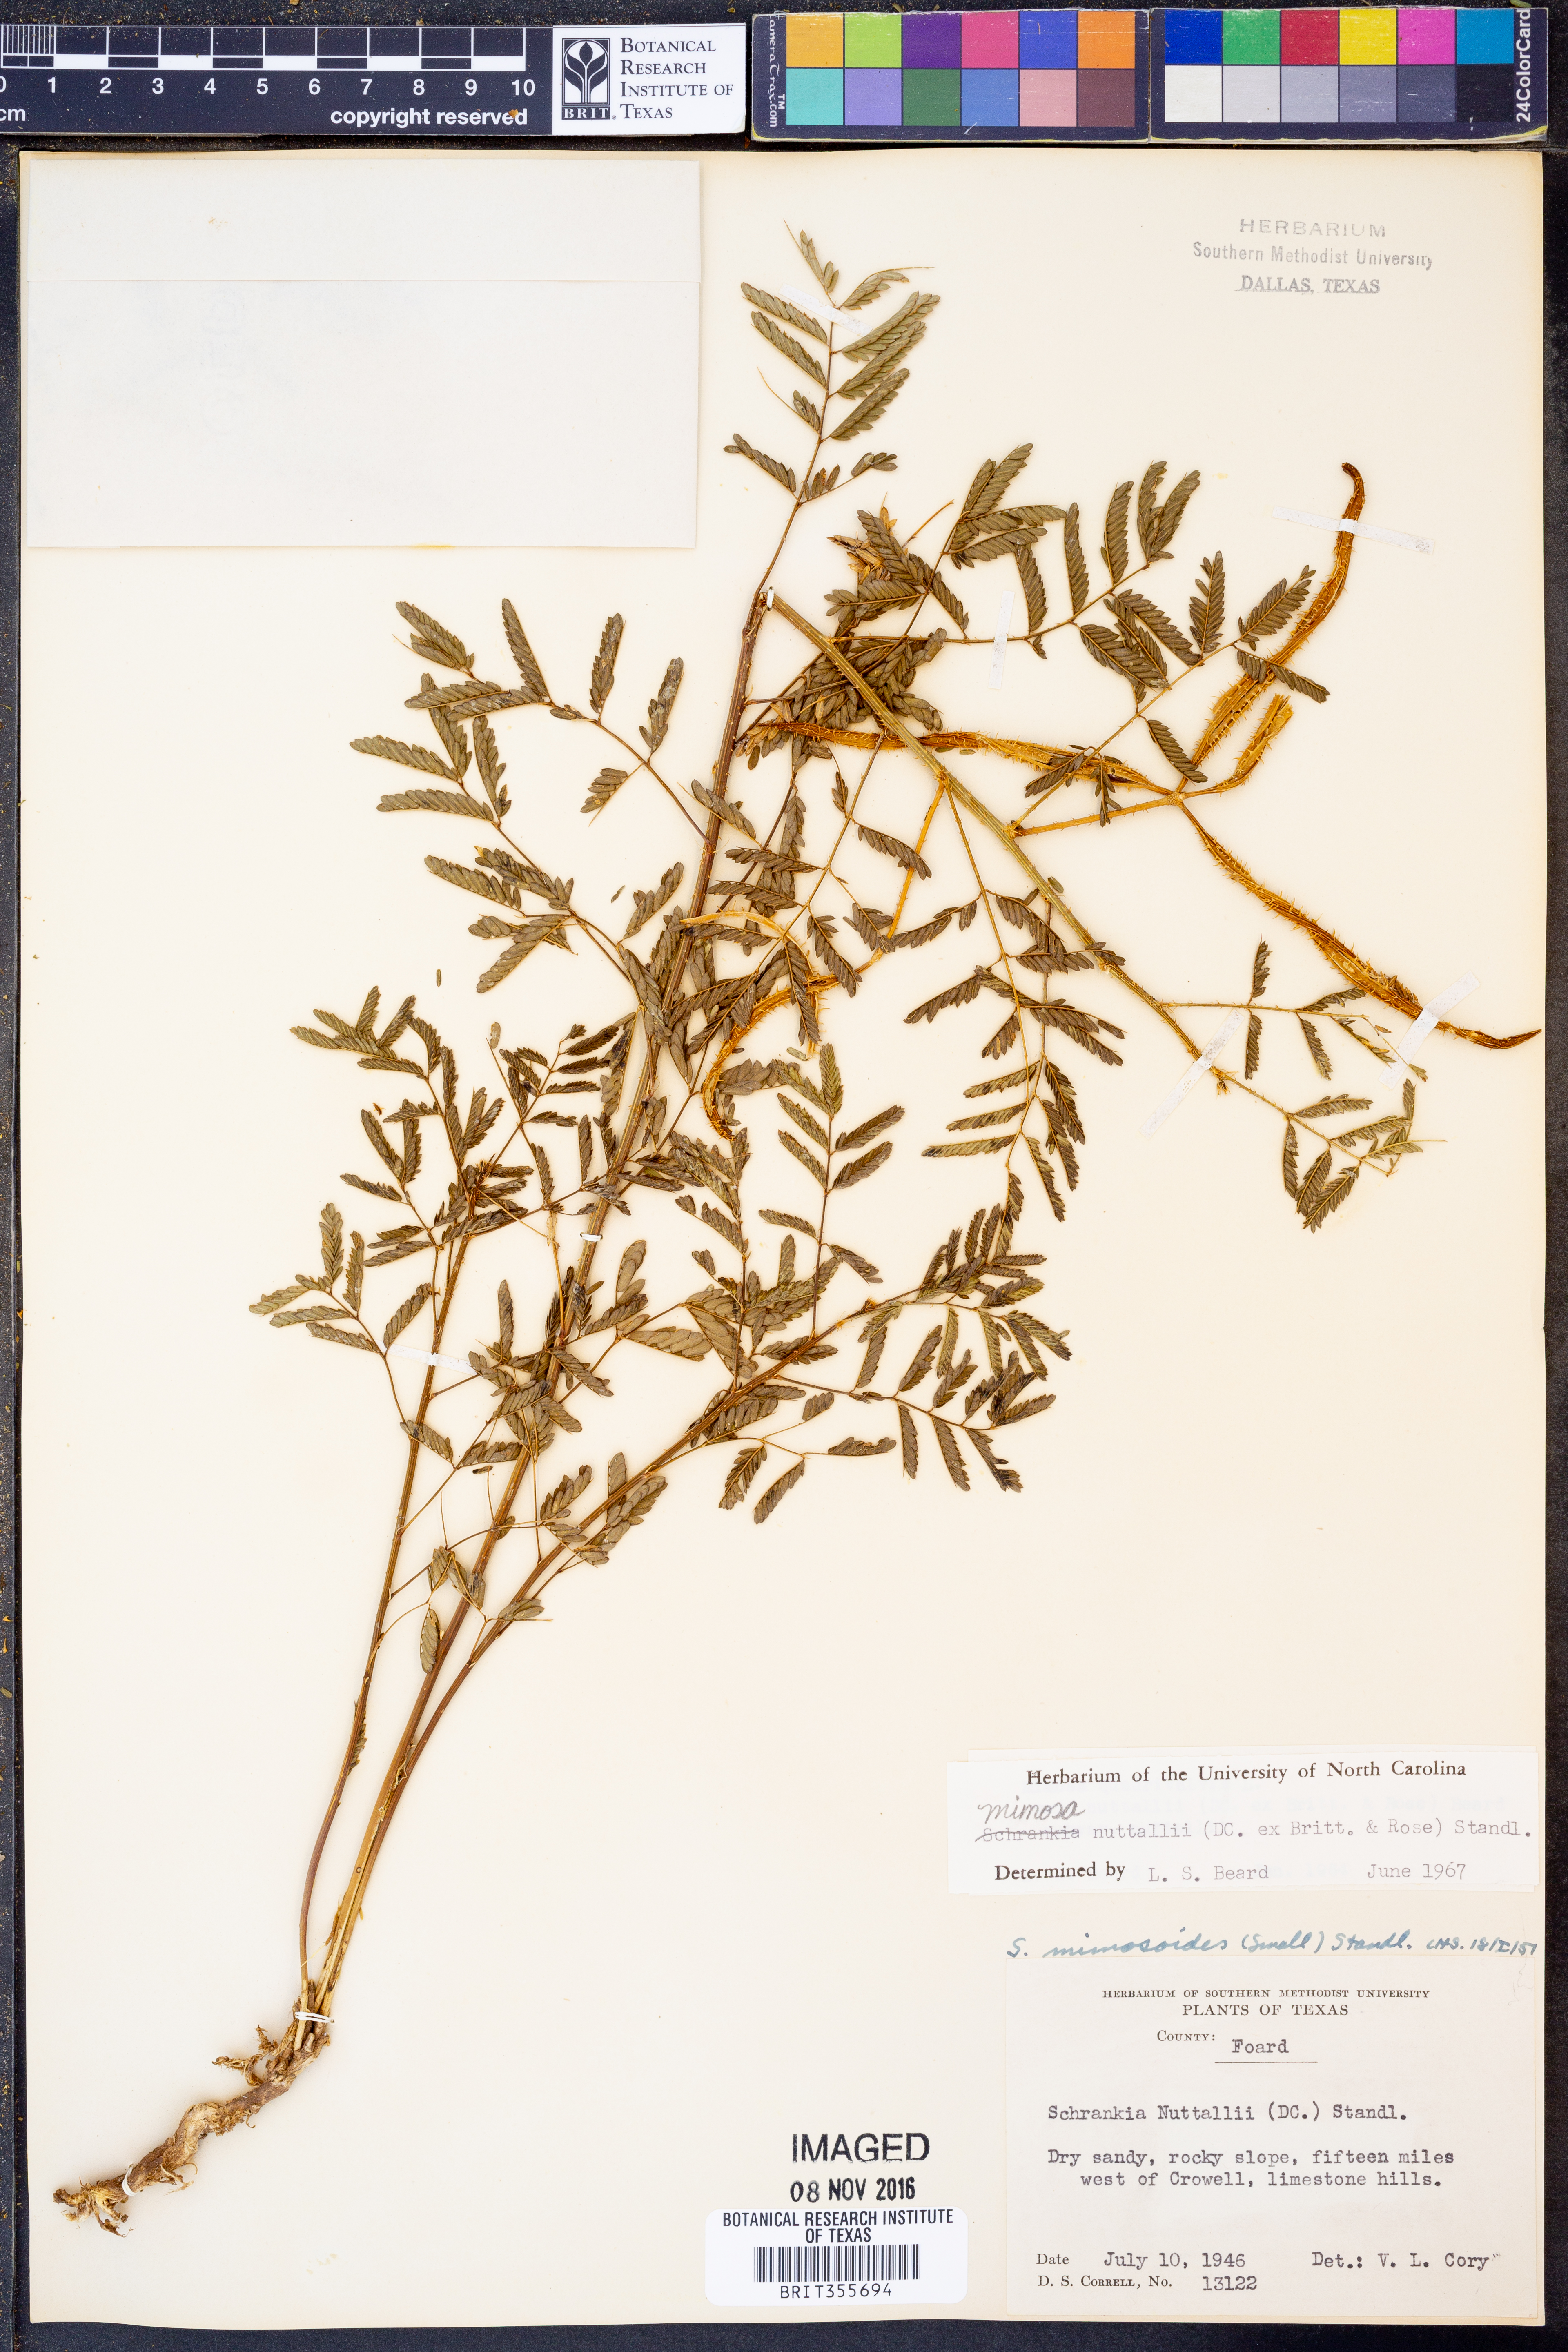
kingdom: Plantae
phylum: Tracheophyta
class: Magnoliopsida
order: Fabales
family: Fabaceae
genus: Mimosa
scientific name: Mimosa quadrivalvis
